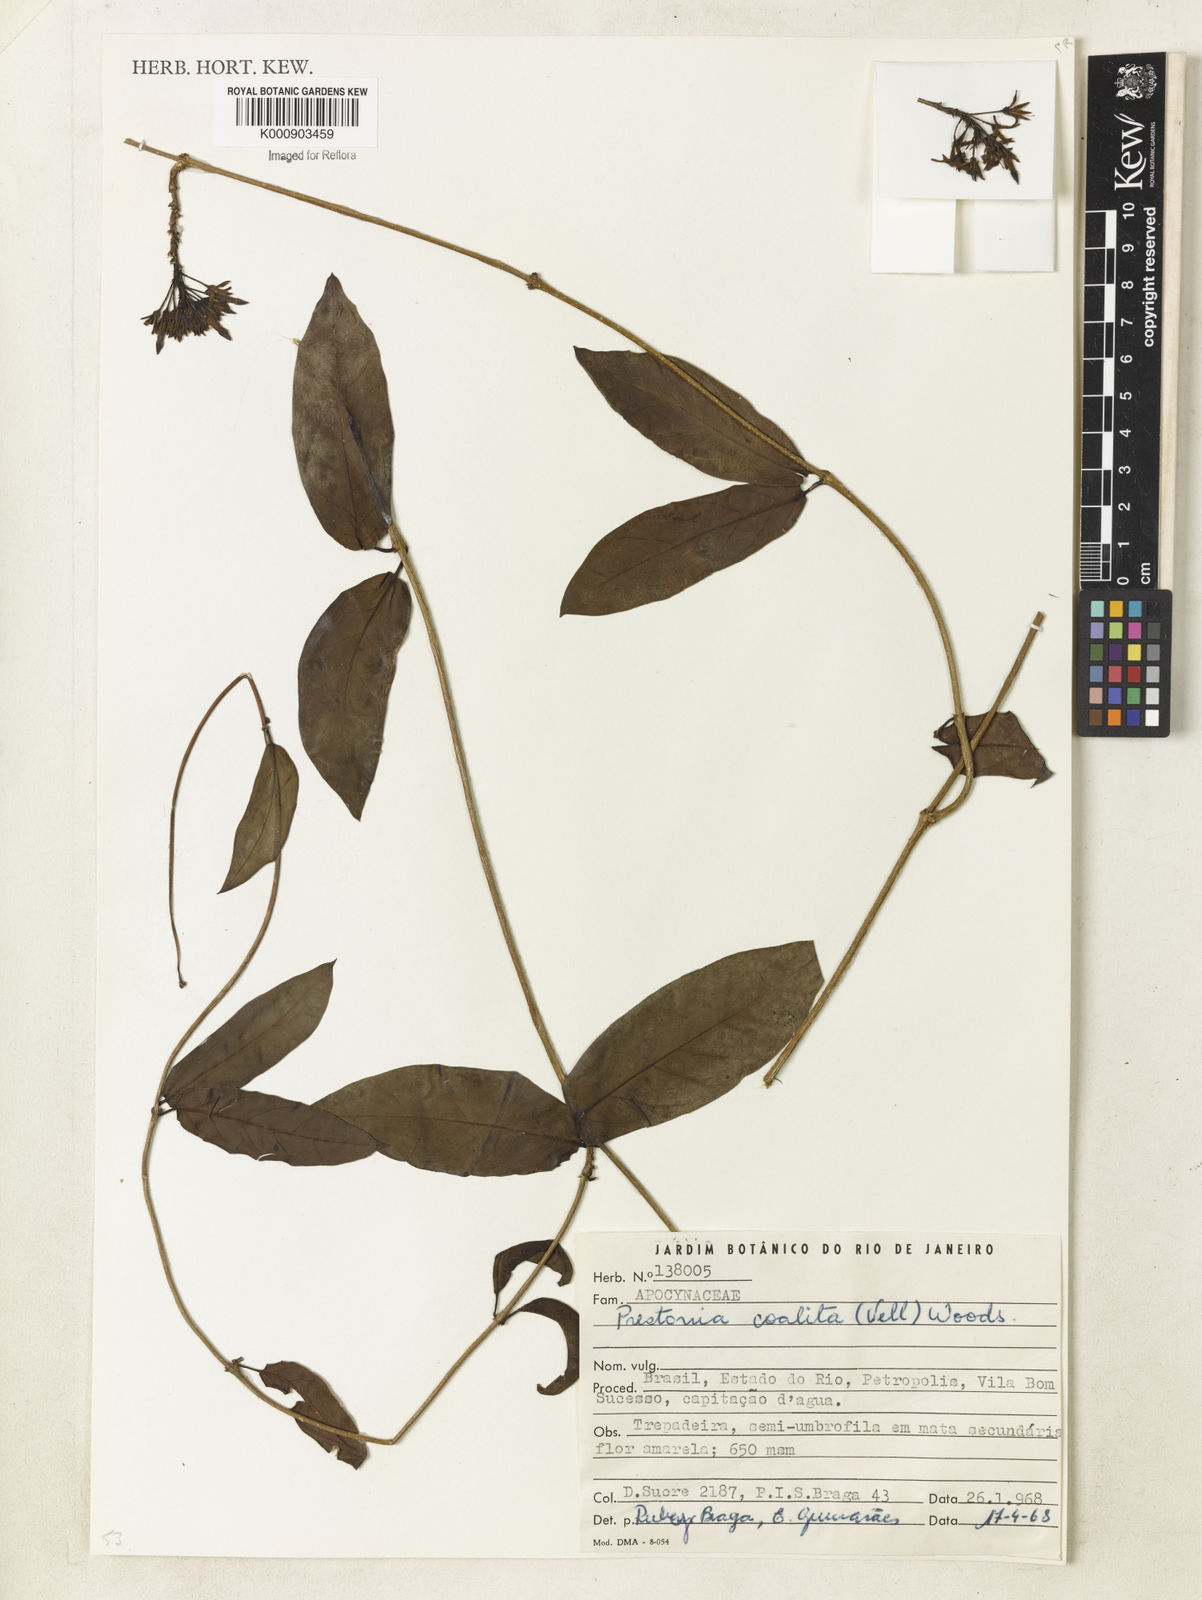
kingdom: Plantae
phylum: Tracheophyta
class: Magnoliopsida
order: Gentianales
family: Apocynaceae
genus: Prestonia
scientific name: Prestonia coalita
